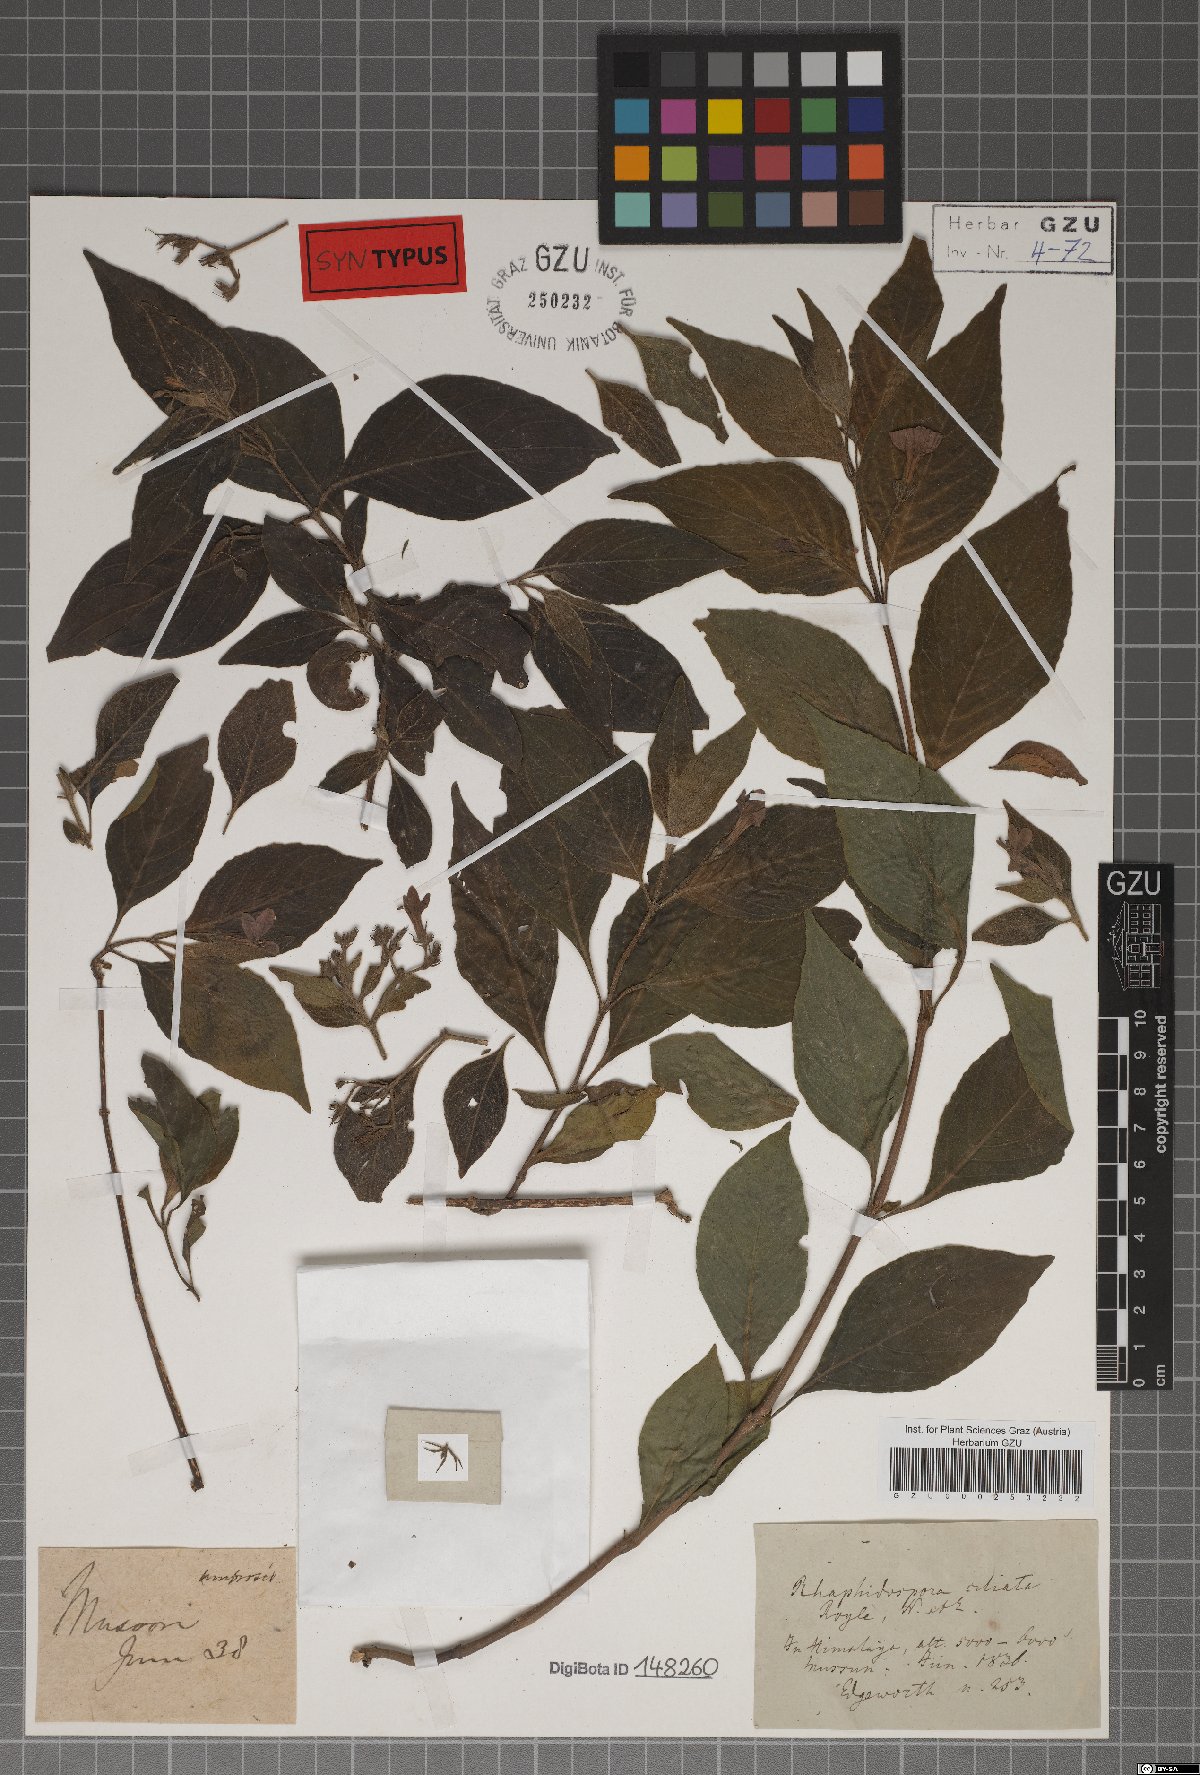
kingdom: Plantae
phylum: Tracheophyta
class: Magnoliopsida
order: Lamiales
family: Acanthaceae
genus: Justicia
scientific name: Justicia pubigera
